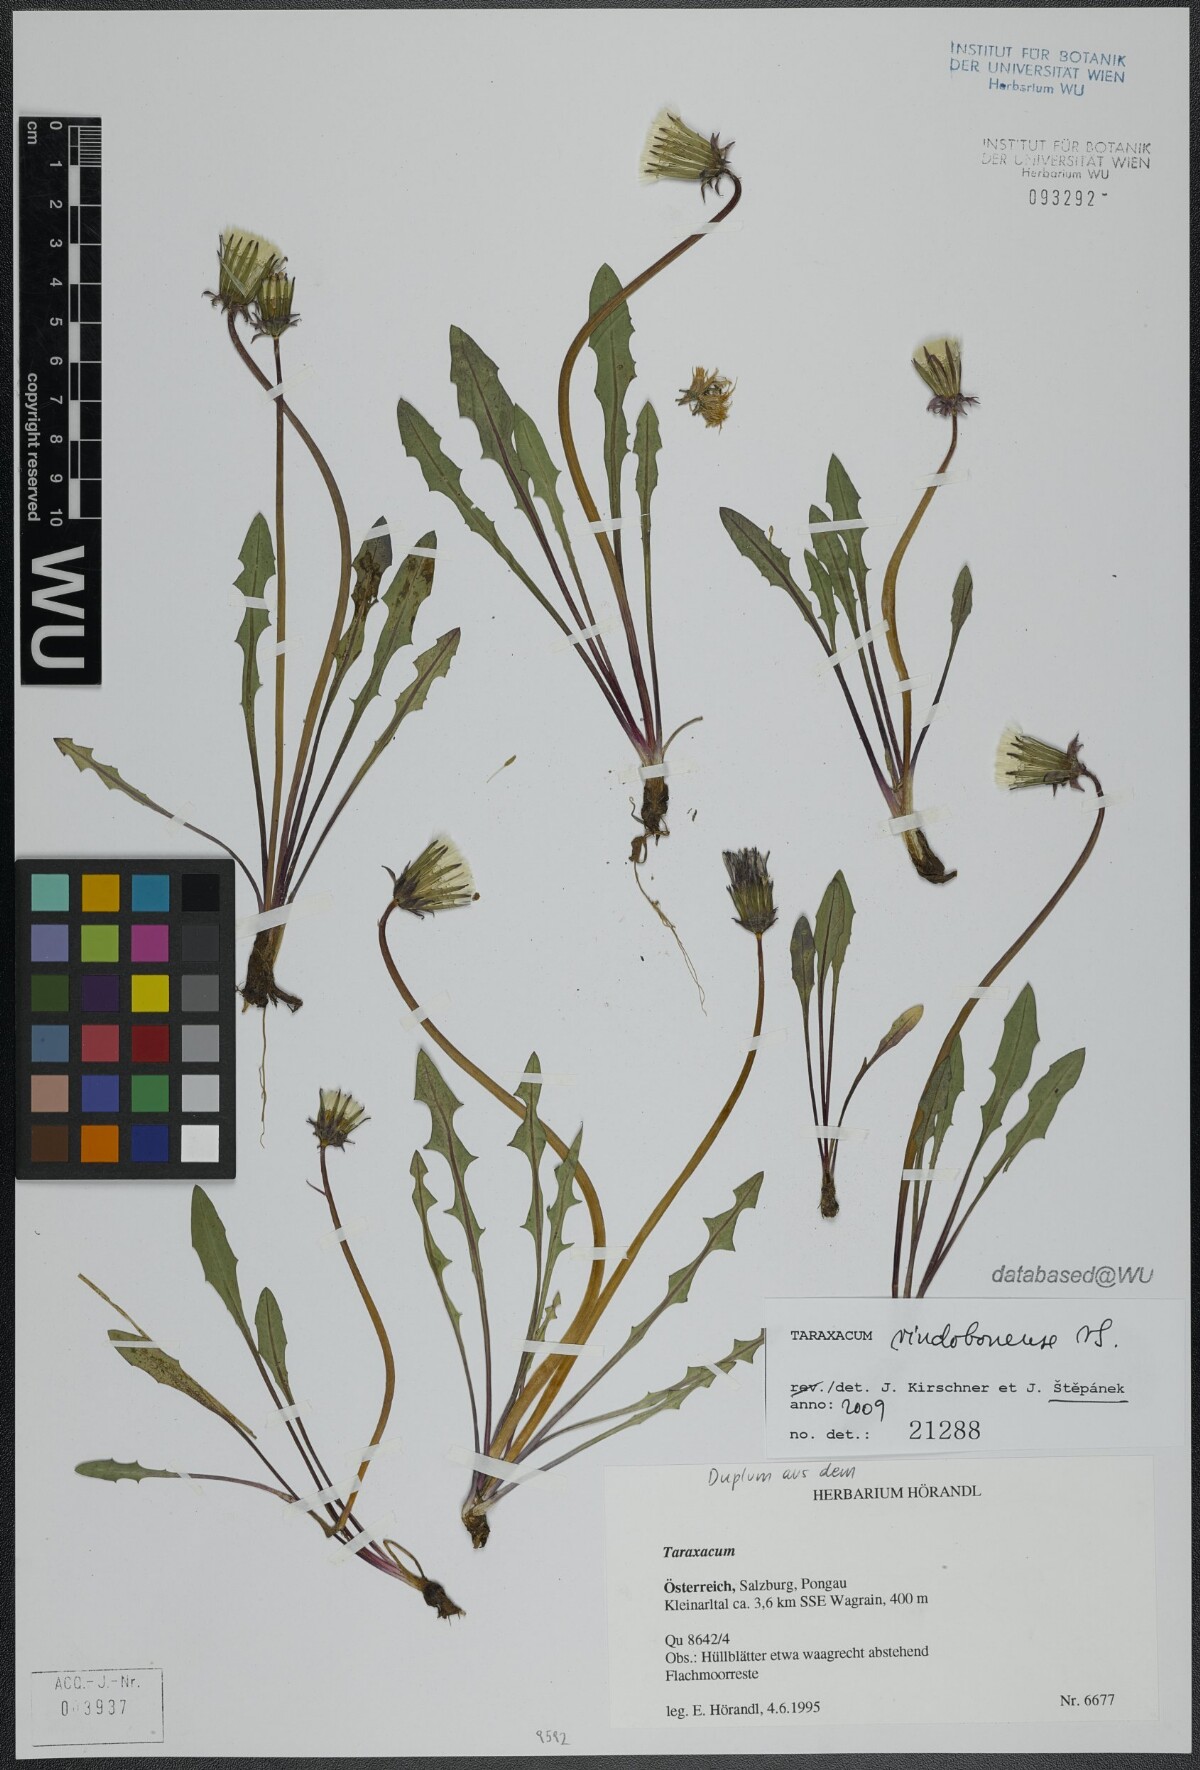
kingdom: Plantae
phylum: Tracheophyta
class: Magnoliopsida
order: Asterales
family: Asteraceae
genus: Taraxacum
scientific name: Taraxacum vindobonense
